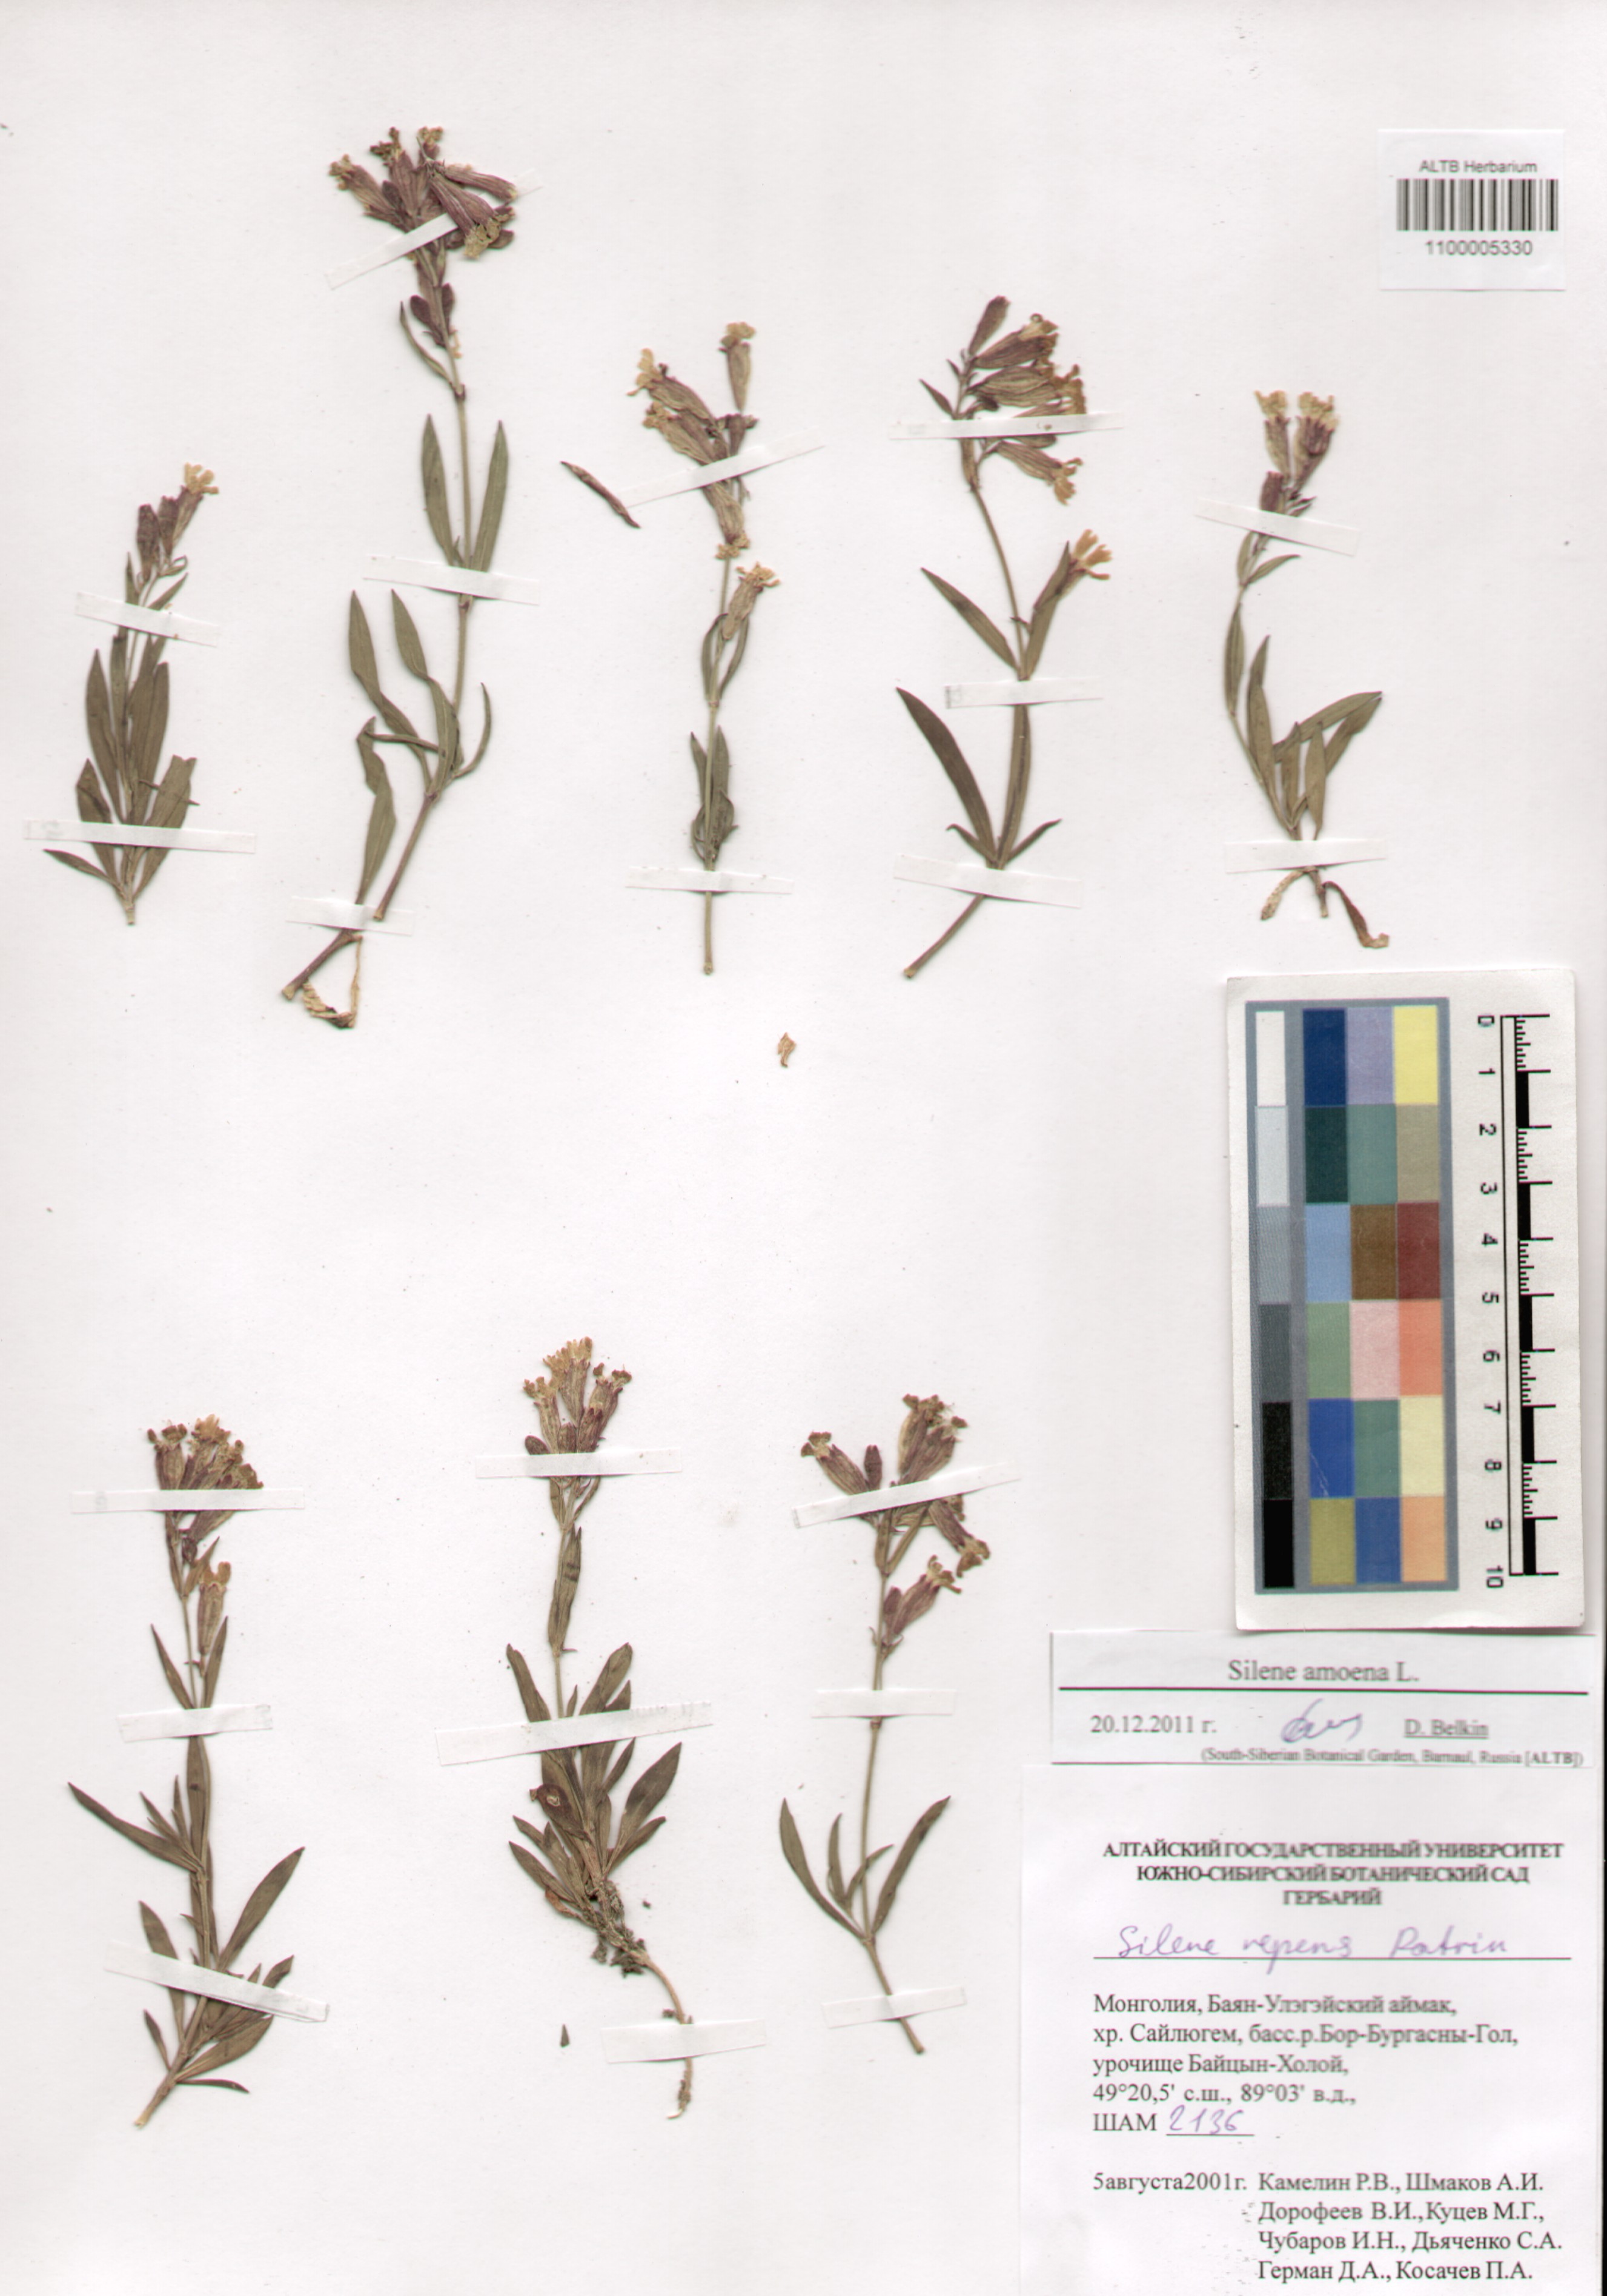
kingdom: Plantae
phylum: Tracheophyta
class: Magnoliopsida
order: Caryophyllales
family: Caryophyllaceae
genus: Silene
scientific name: Silene amoena
